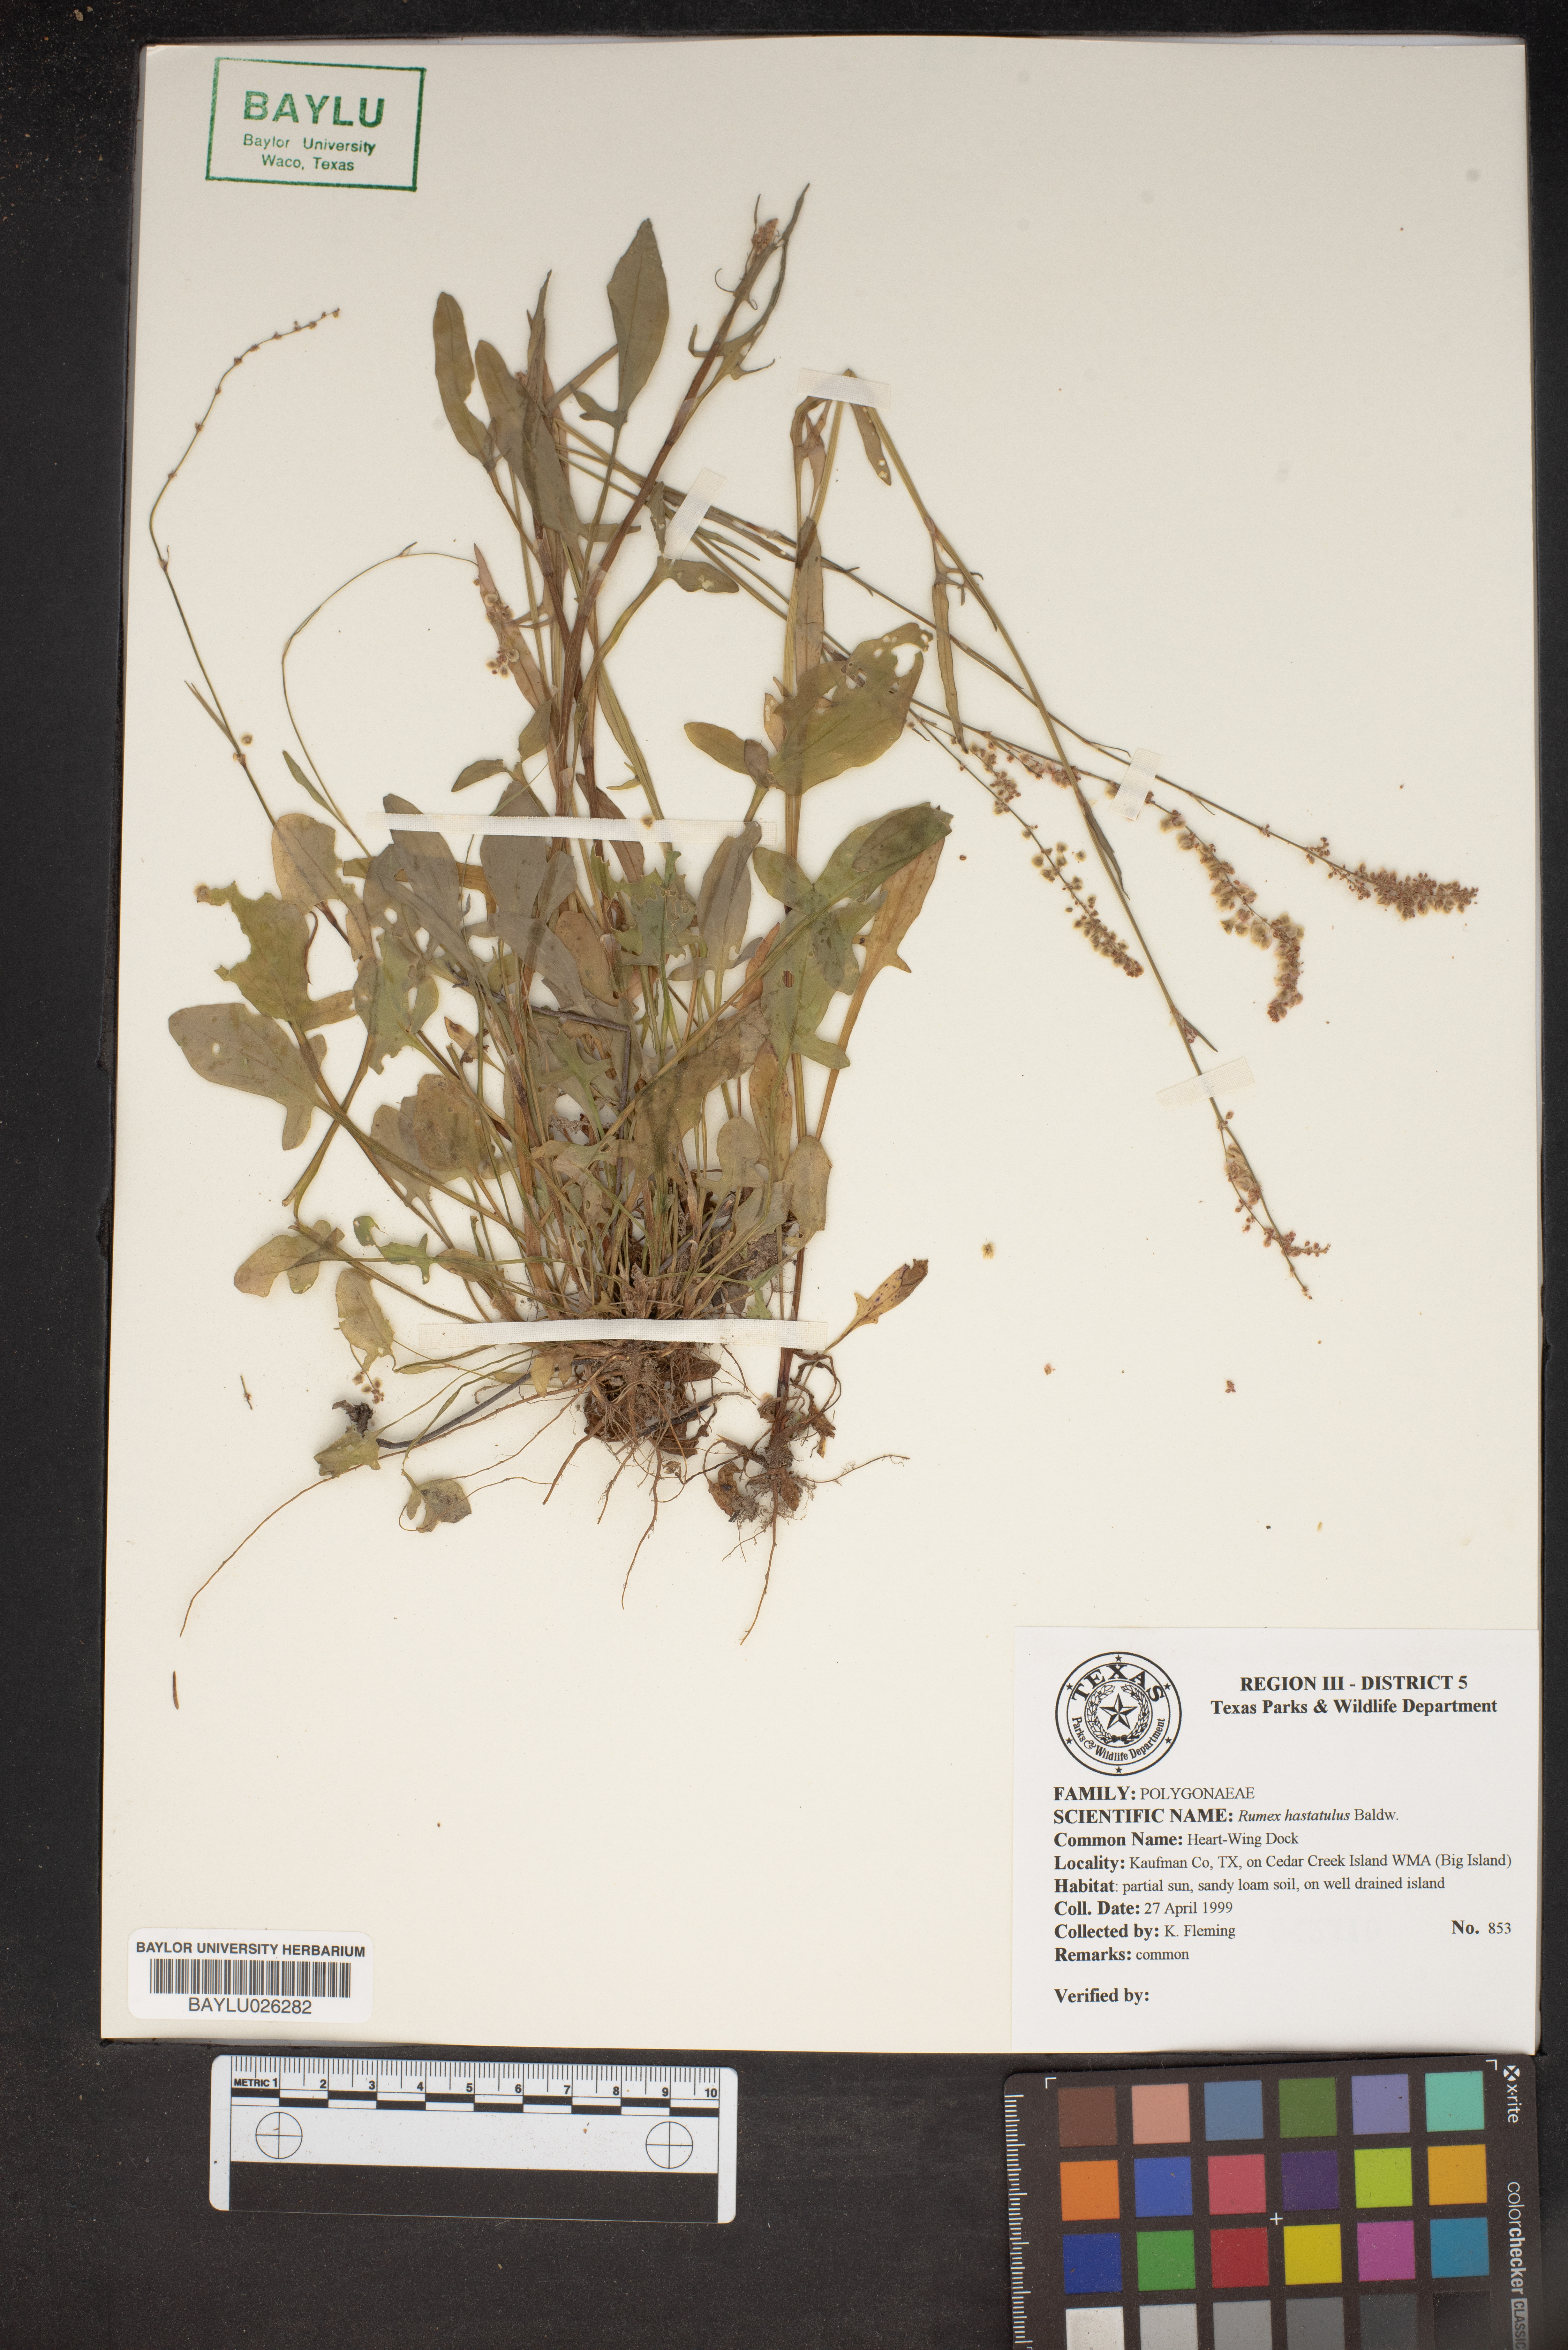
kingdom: Plantae
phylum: Tracheophyta
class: Magnoliopsida
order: Caryophyllales
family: Polygonaceae
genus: Rumex
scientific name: Rumex hastatulus
